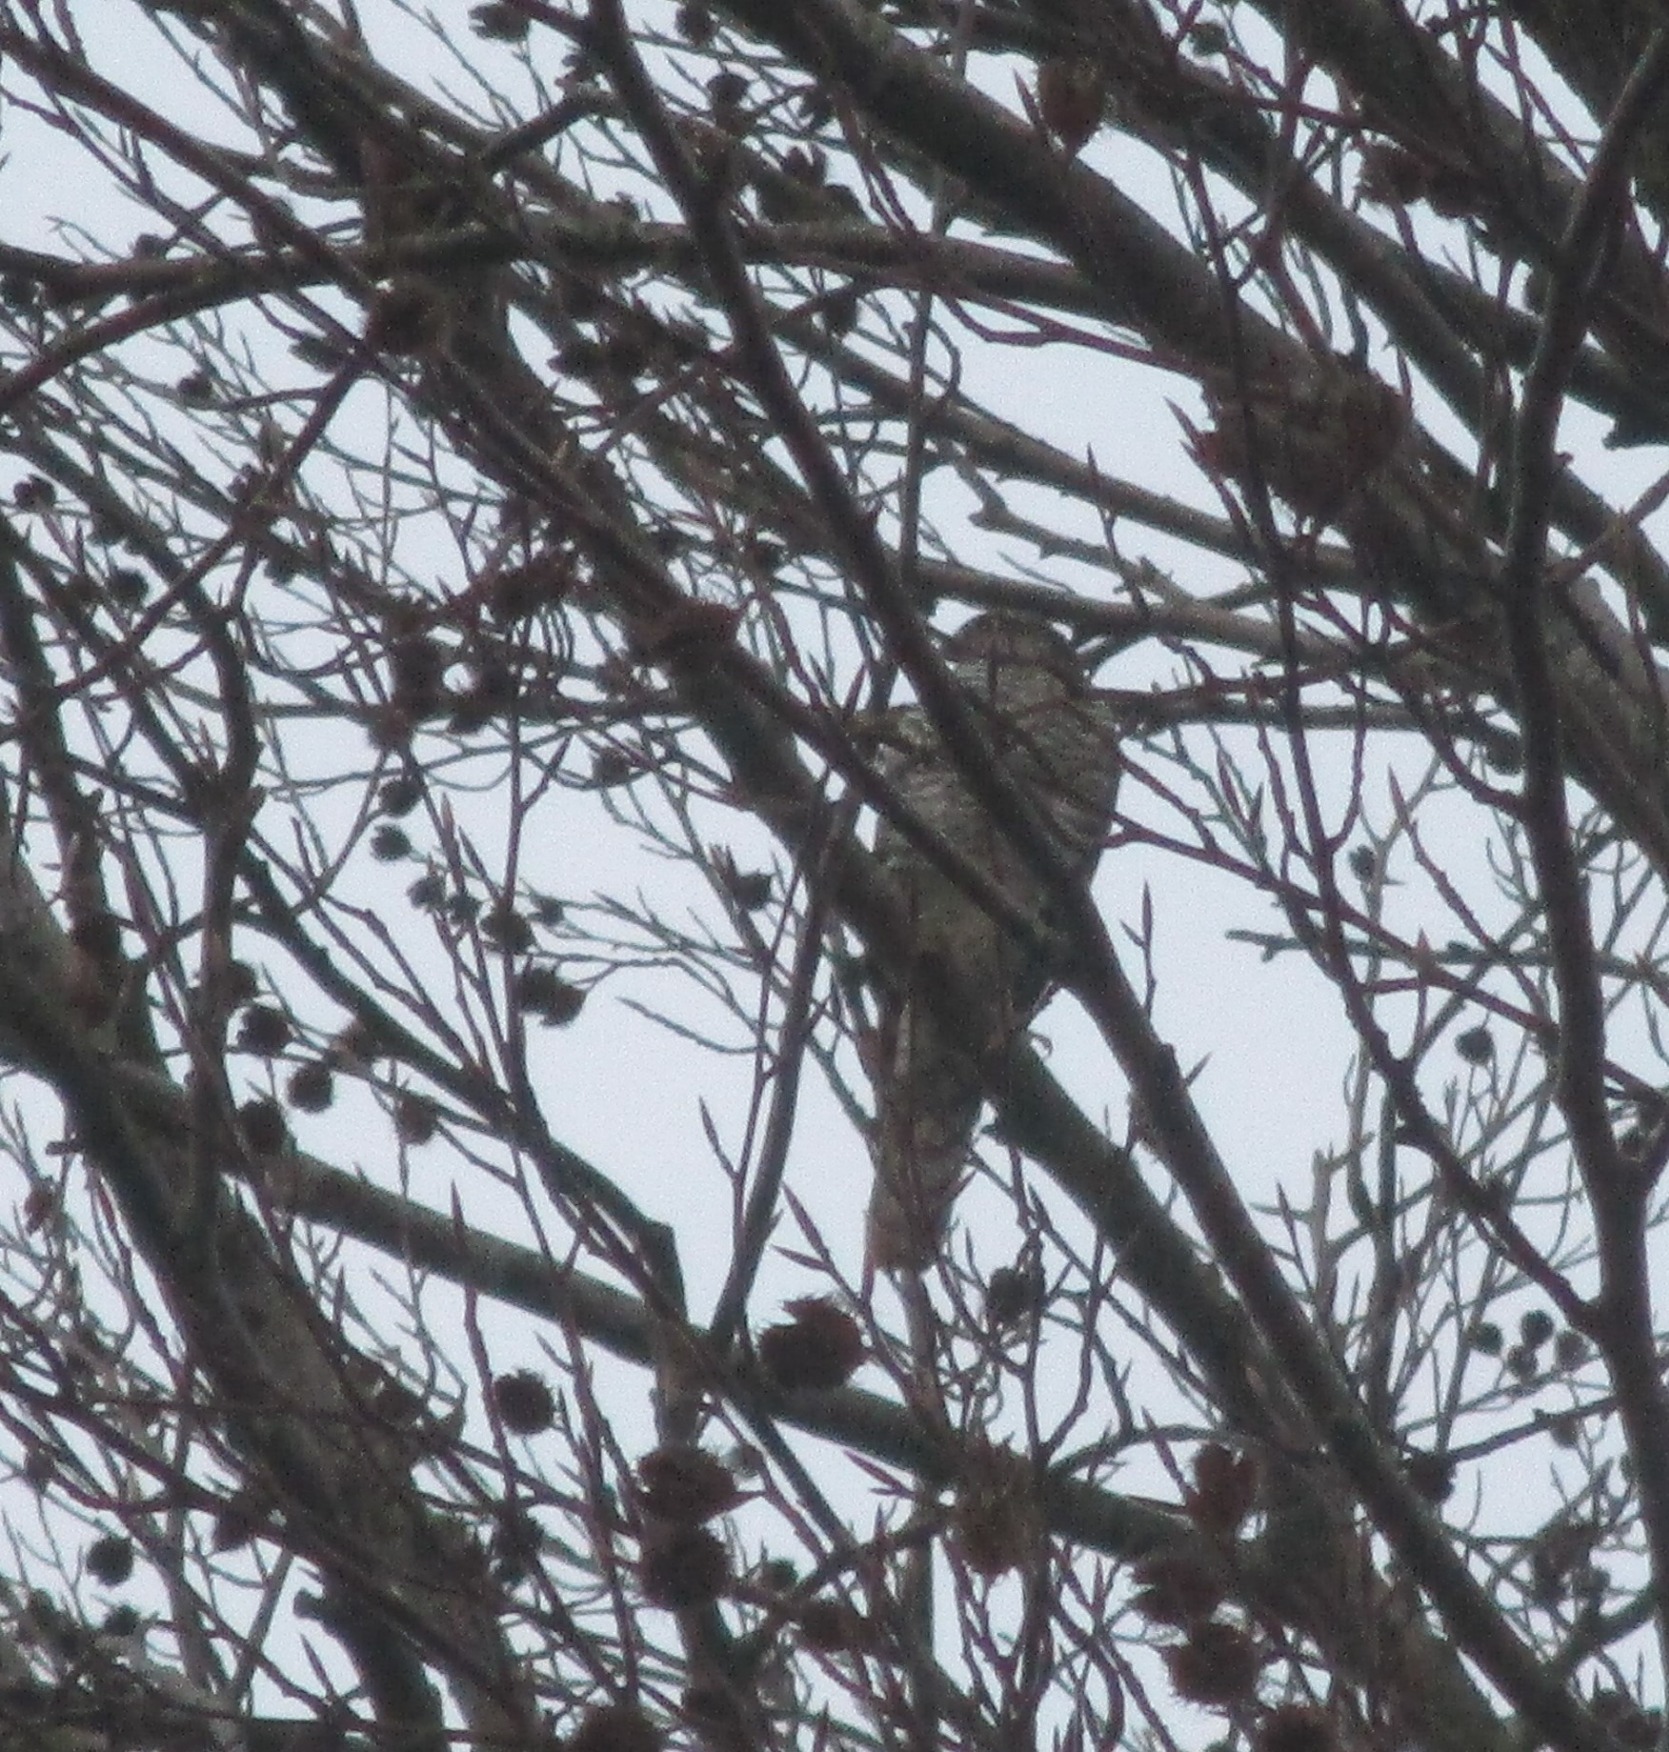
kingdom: Animalia
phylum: Chordata
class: Aves
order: Accipitriformes
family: Accipitridae
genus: Accipiter
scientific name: Accipiter nisus
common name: Spurvehøg
